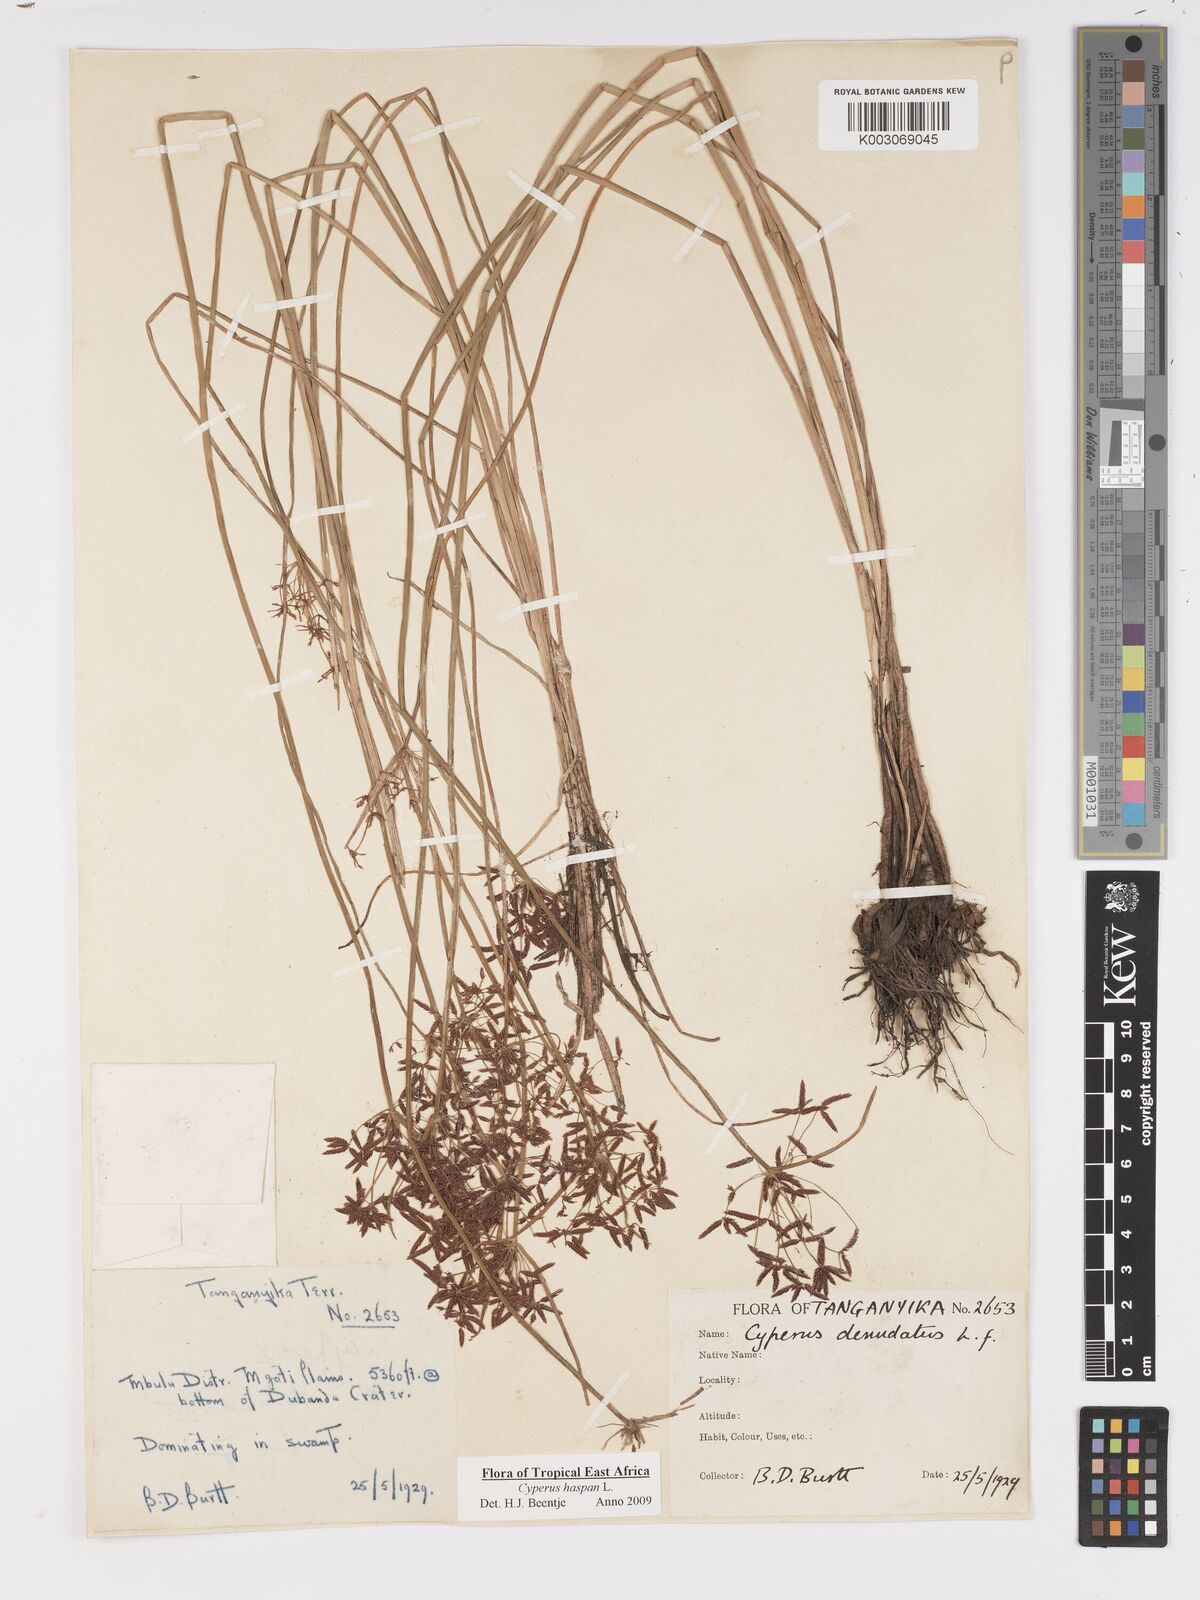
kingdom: Plantae
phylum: Tracheophyta
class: Liliopsida
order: Poales
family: Cyperaceae
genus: Cyperus
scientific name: Cyperus haspan
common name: Haspan flatsedge
